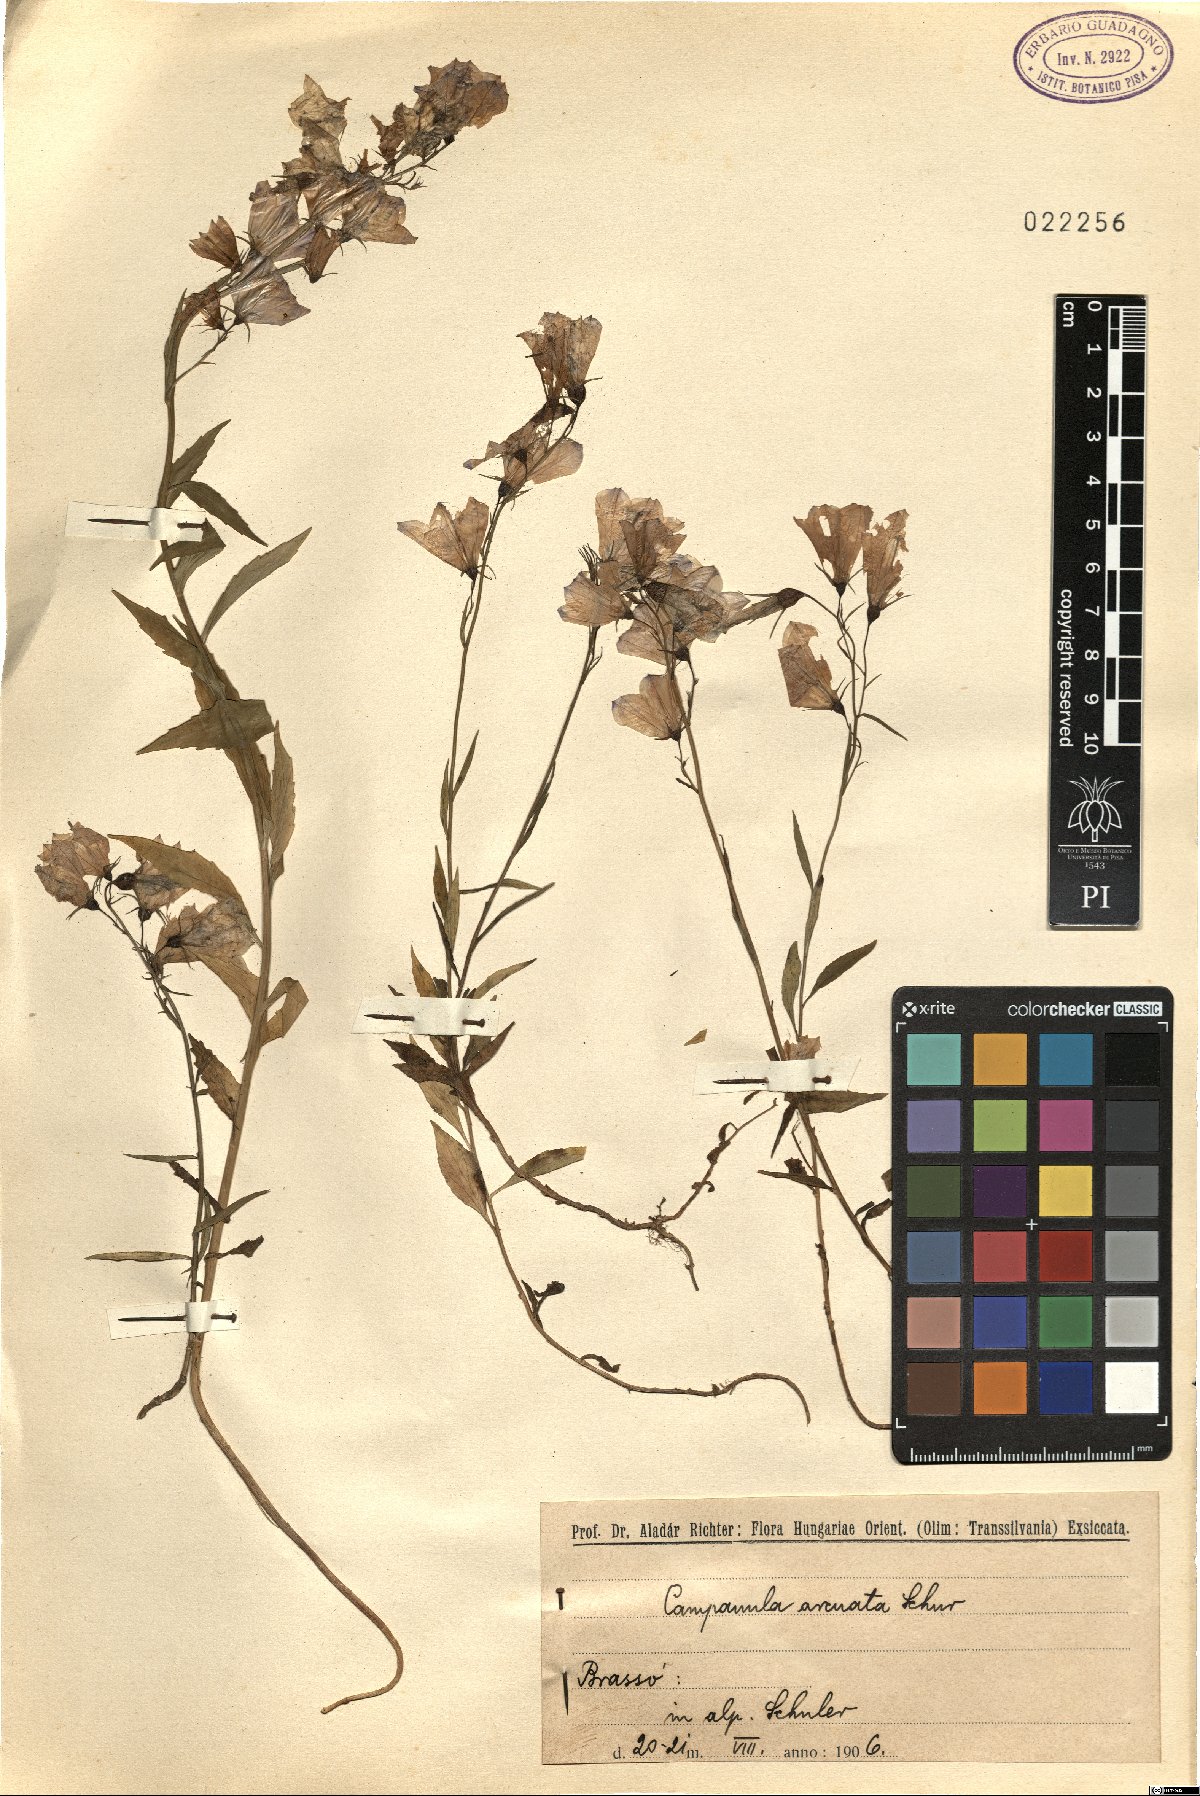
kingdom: Plantae
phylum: Tracheophyta
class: Magnoliopsida
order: Asterales
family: Campanulaceae
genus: Campanula
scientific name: Campanula serrata
